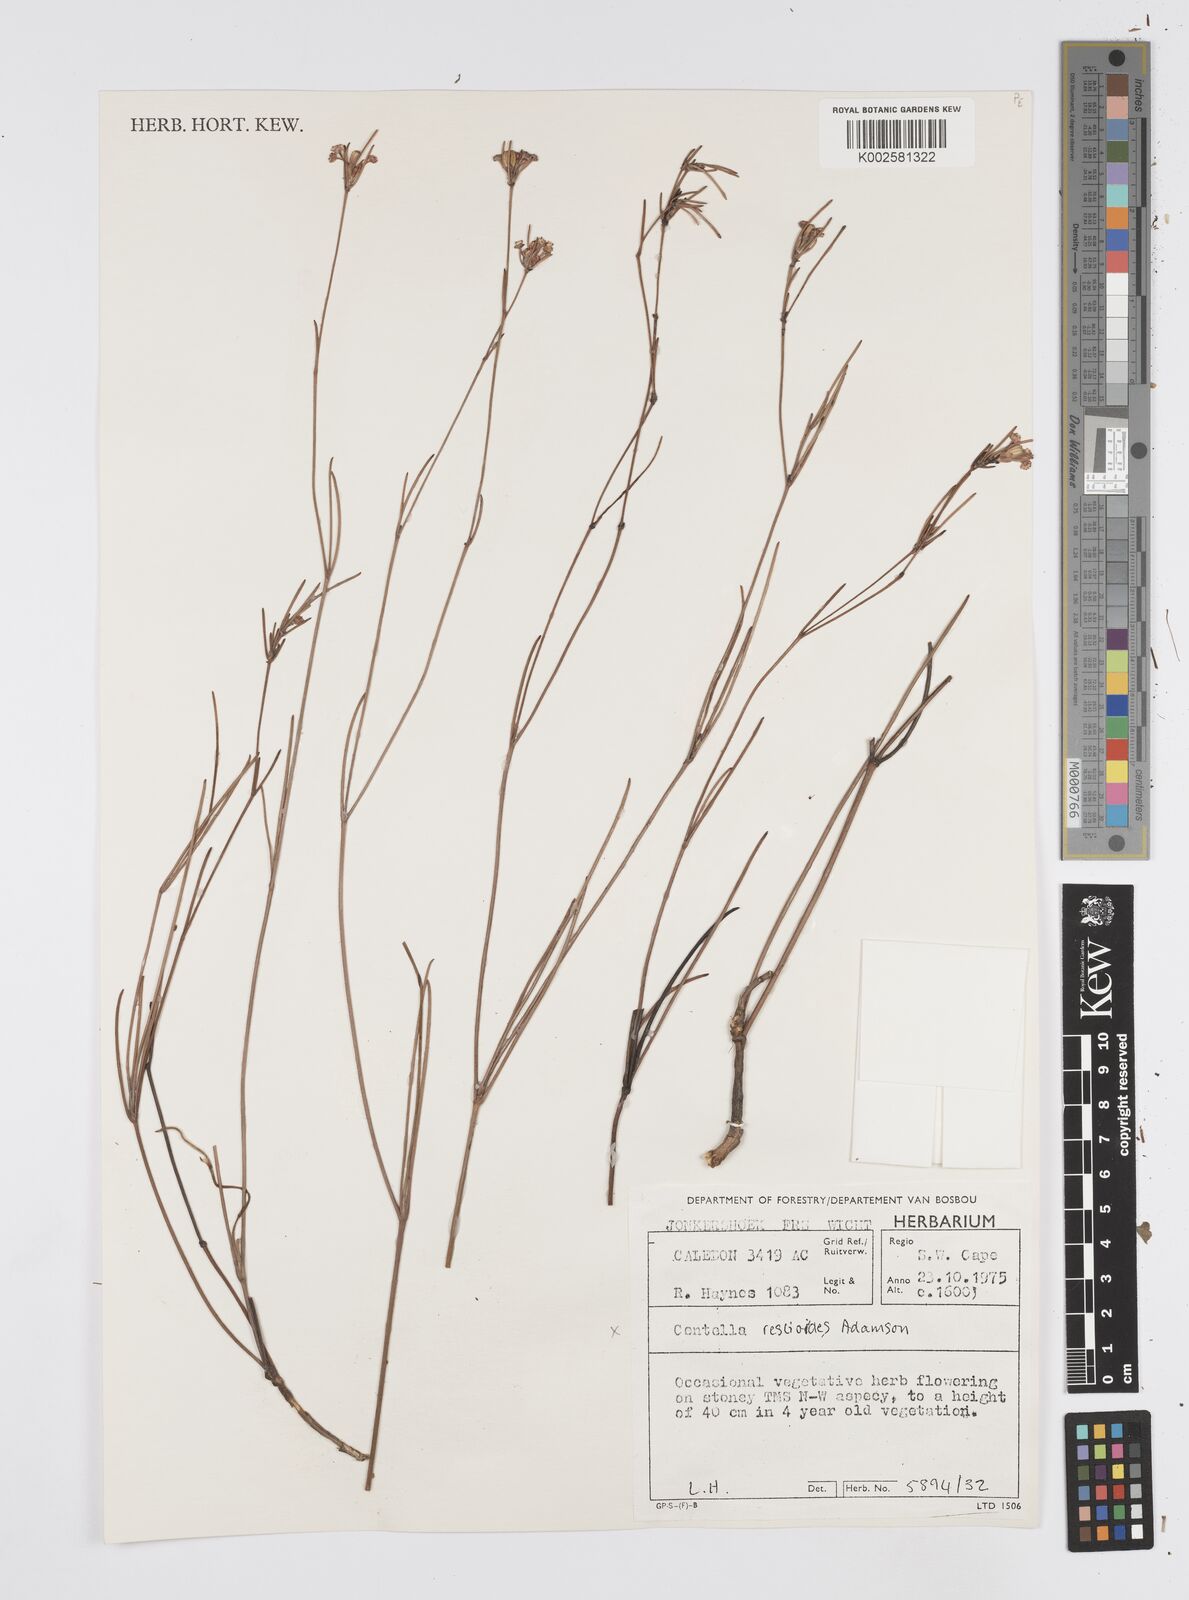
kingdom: Plantae
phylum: Tracheophyta
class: Magnoliopsida
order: Apiales
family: Apiaceae
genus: Centella
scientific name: Centella restioides
